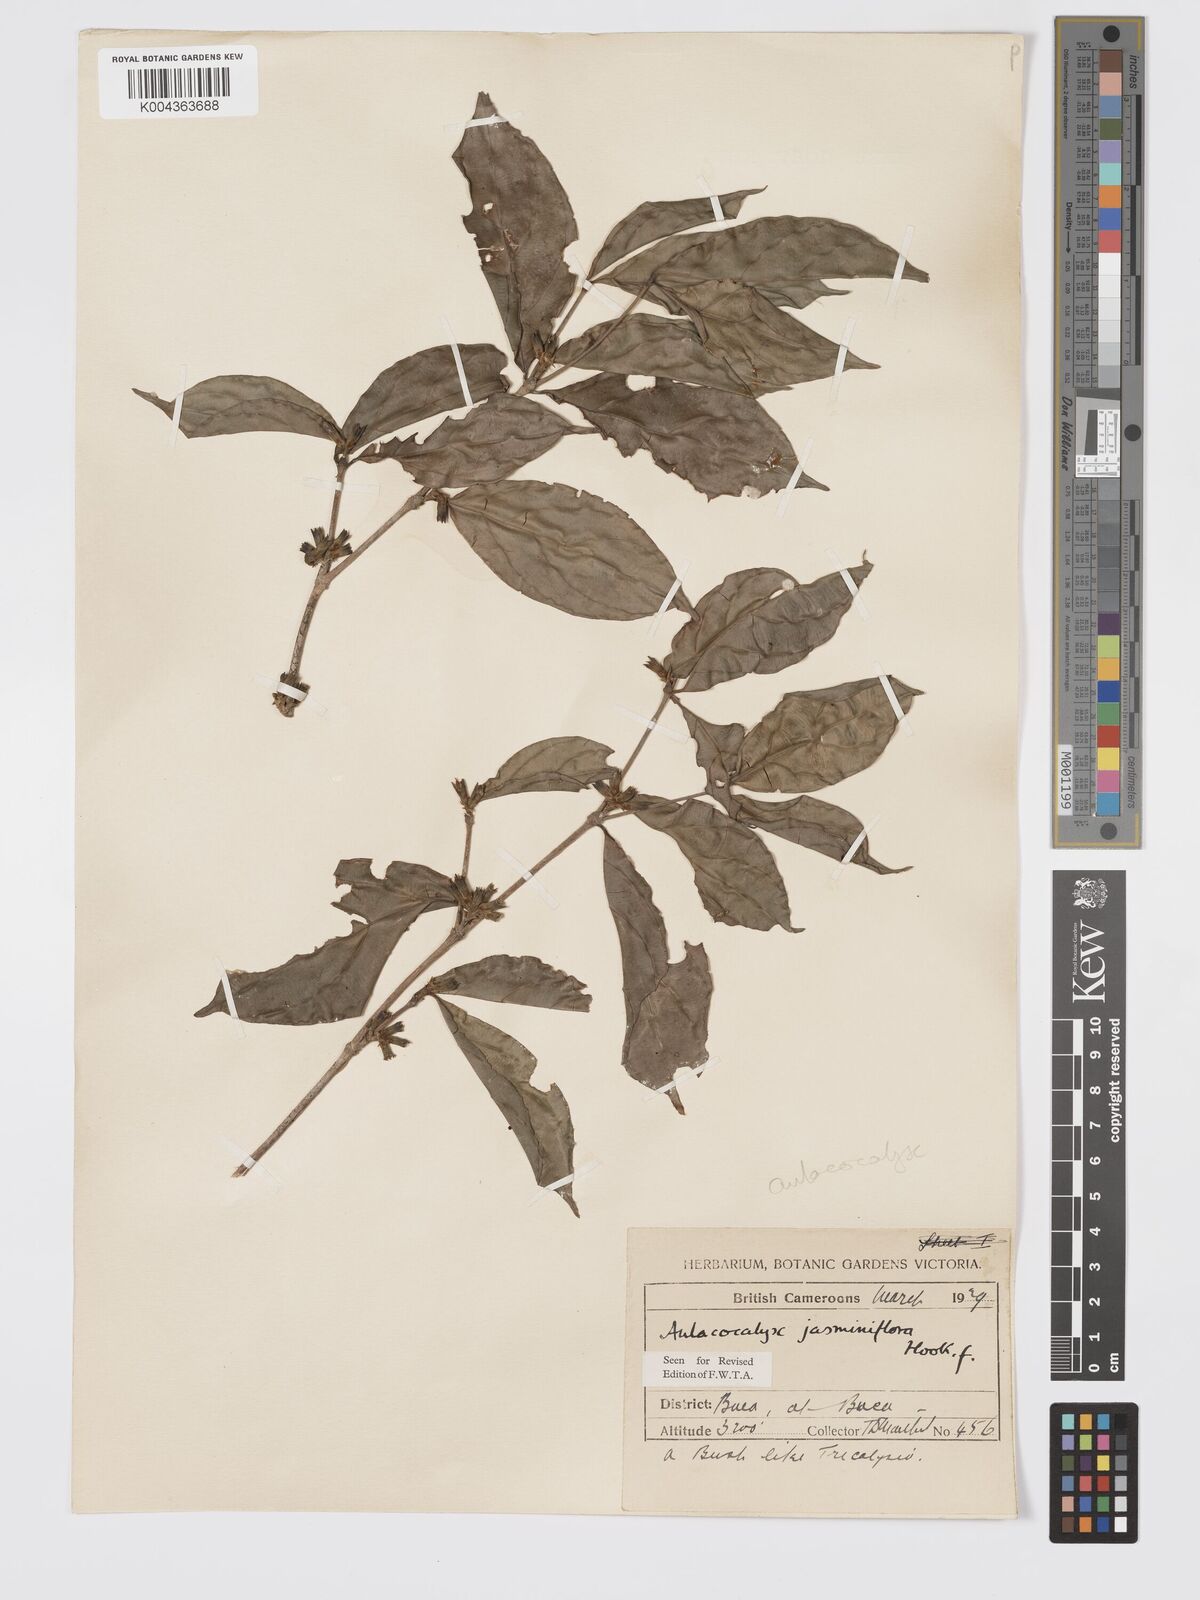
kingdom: Plantae
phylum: Tracheophyta
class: Magnoliopsida
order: Gentianales
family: Rubiaceae
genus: Aulacocalyx
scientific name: Aulacocalyx jasminiflora
